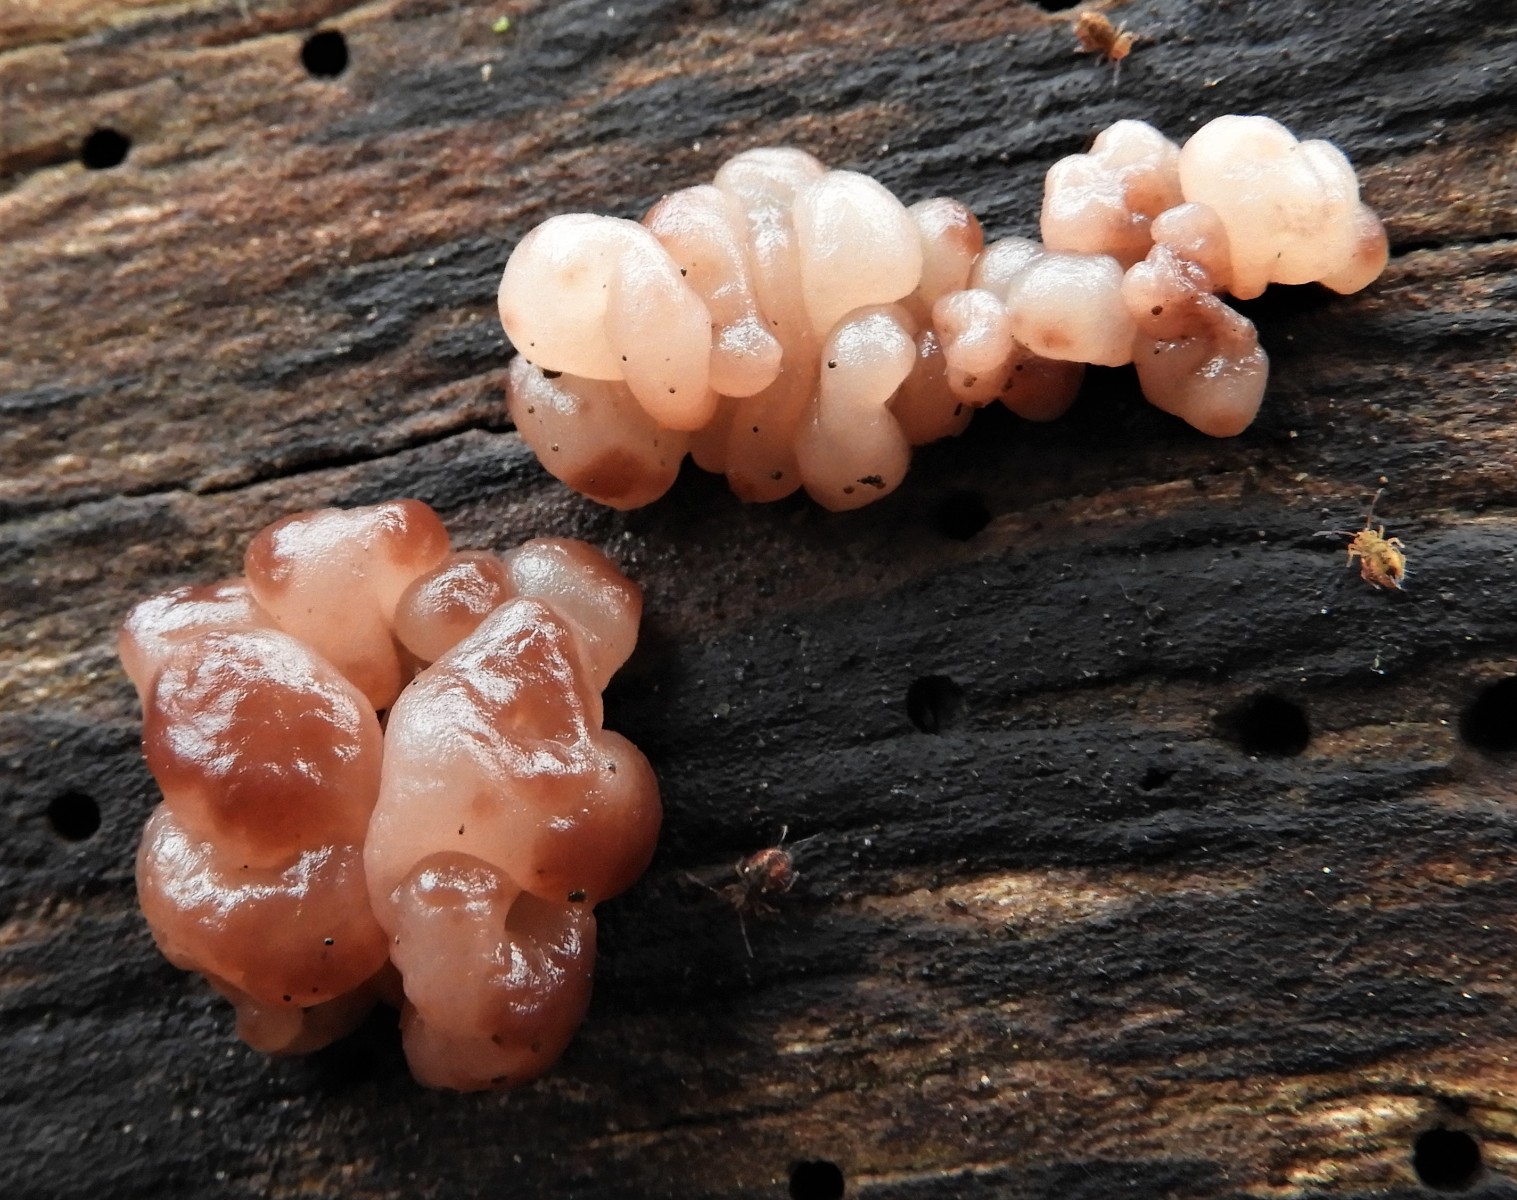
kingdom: Fungi
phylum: Ascomycota
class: Leotiomycetes
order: Helotiales
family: Helotiaceae
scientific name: Helotiaceae
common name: stilkskivefamilien
